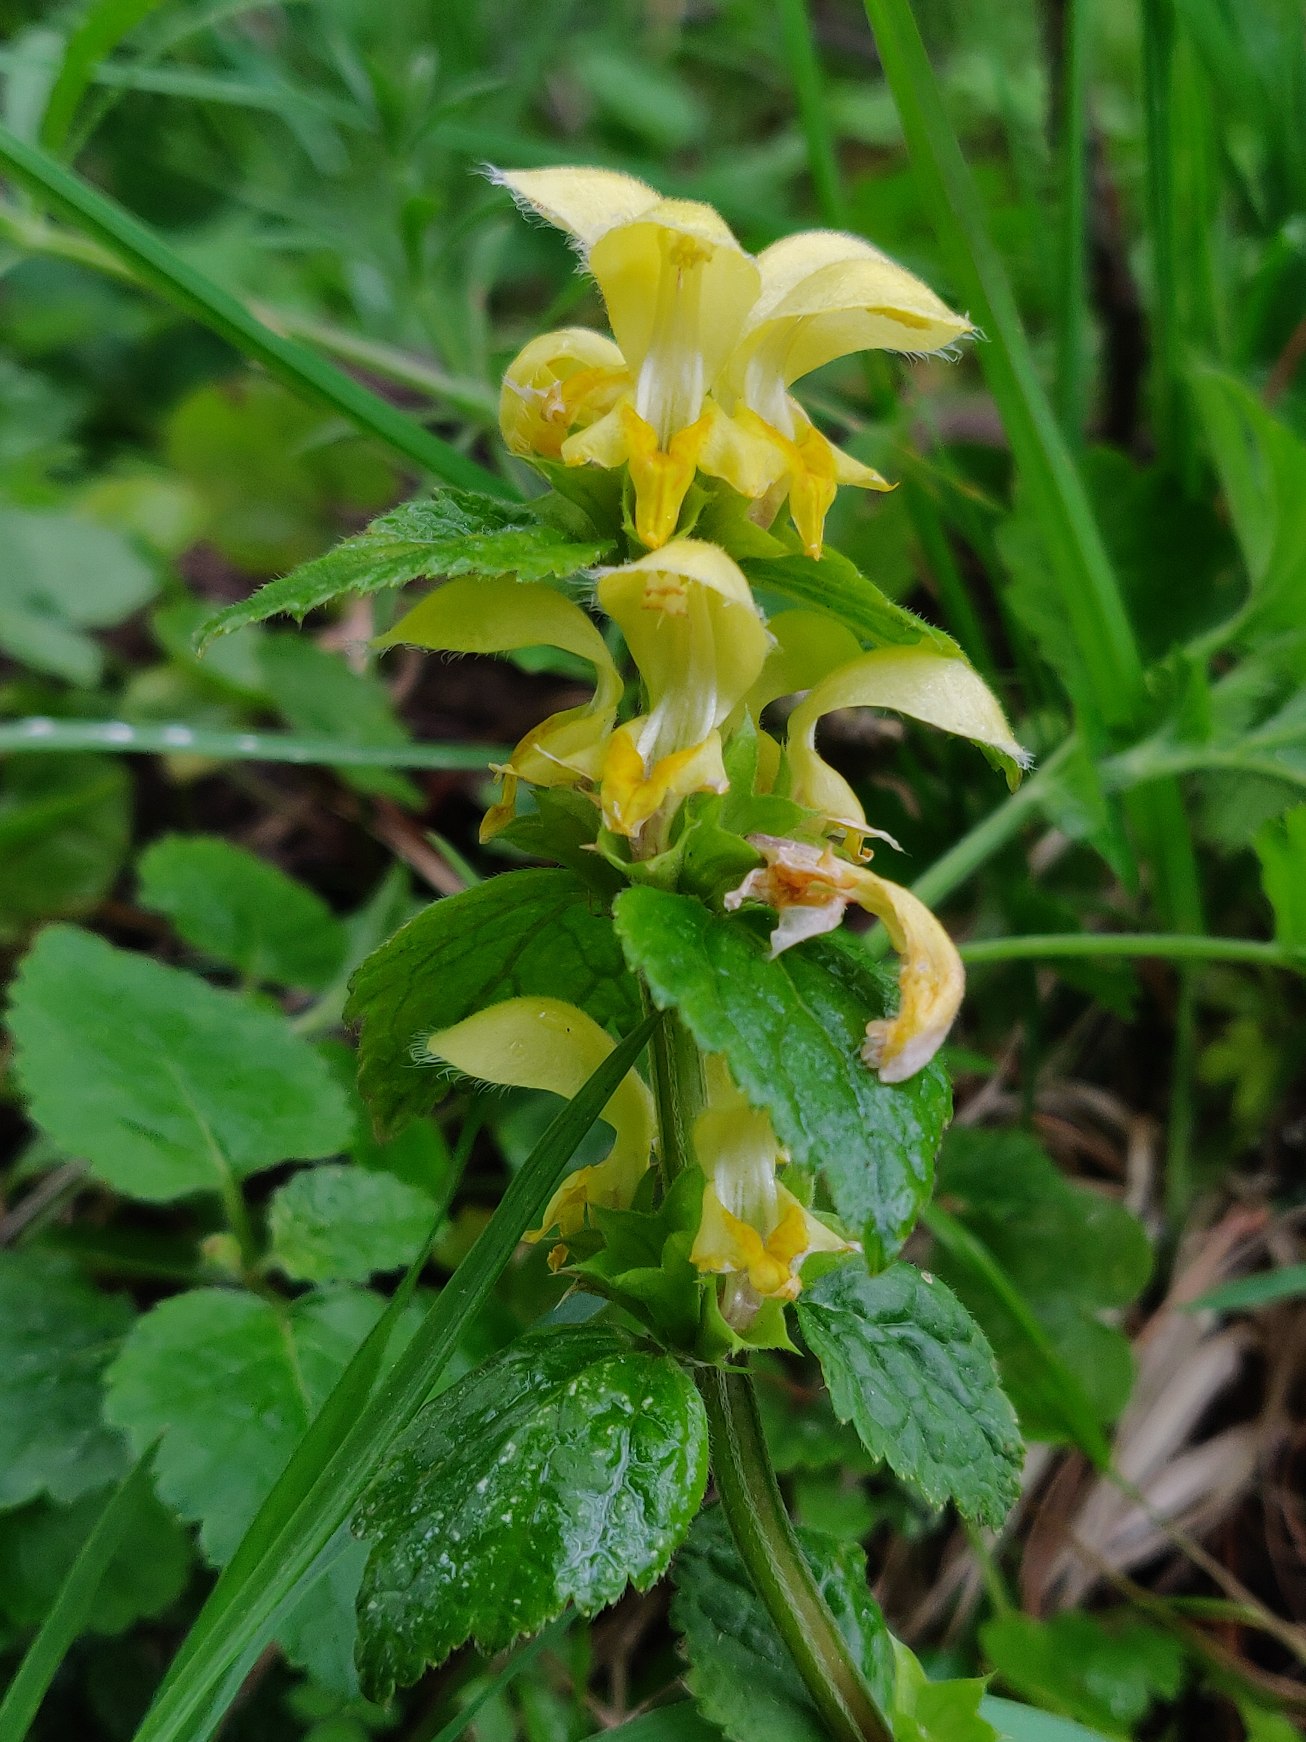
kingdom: Plantae
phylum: Tracheophyta
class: Magnoliopsida
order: Lamiales
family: Lamiaceae
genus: Lamium
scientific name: Lamium galeobdolon
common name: Guldnælde
